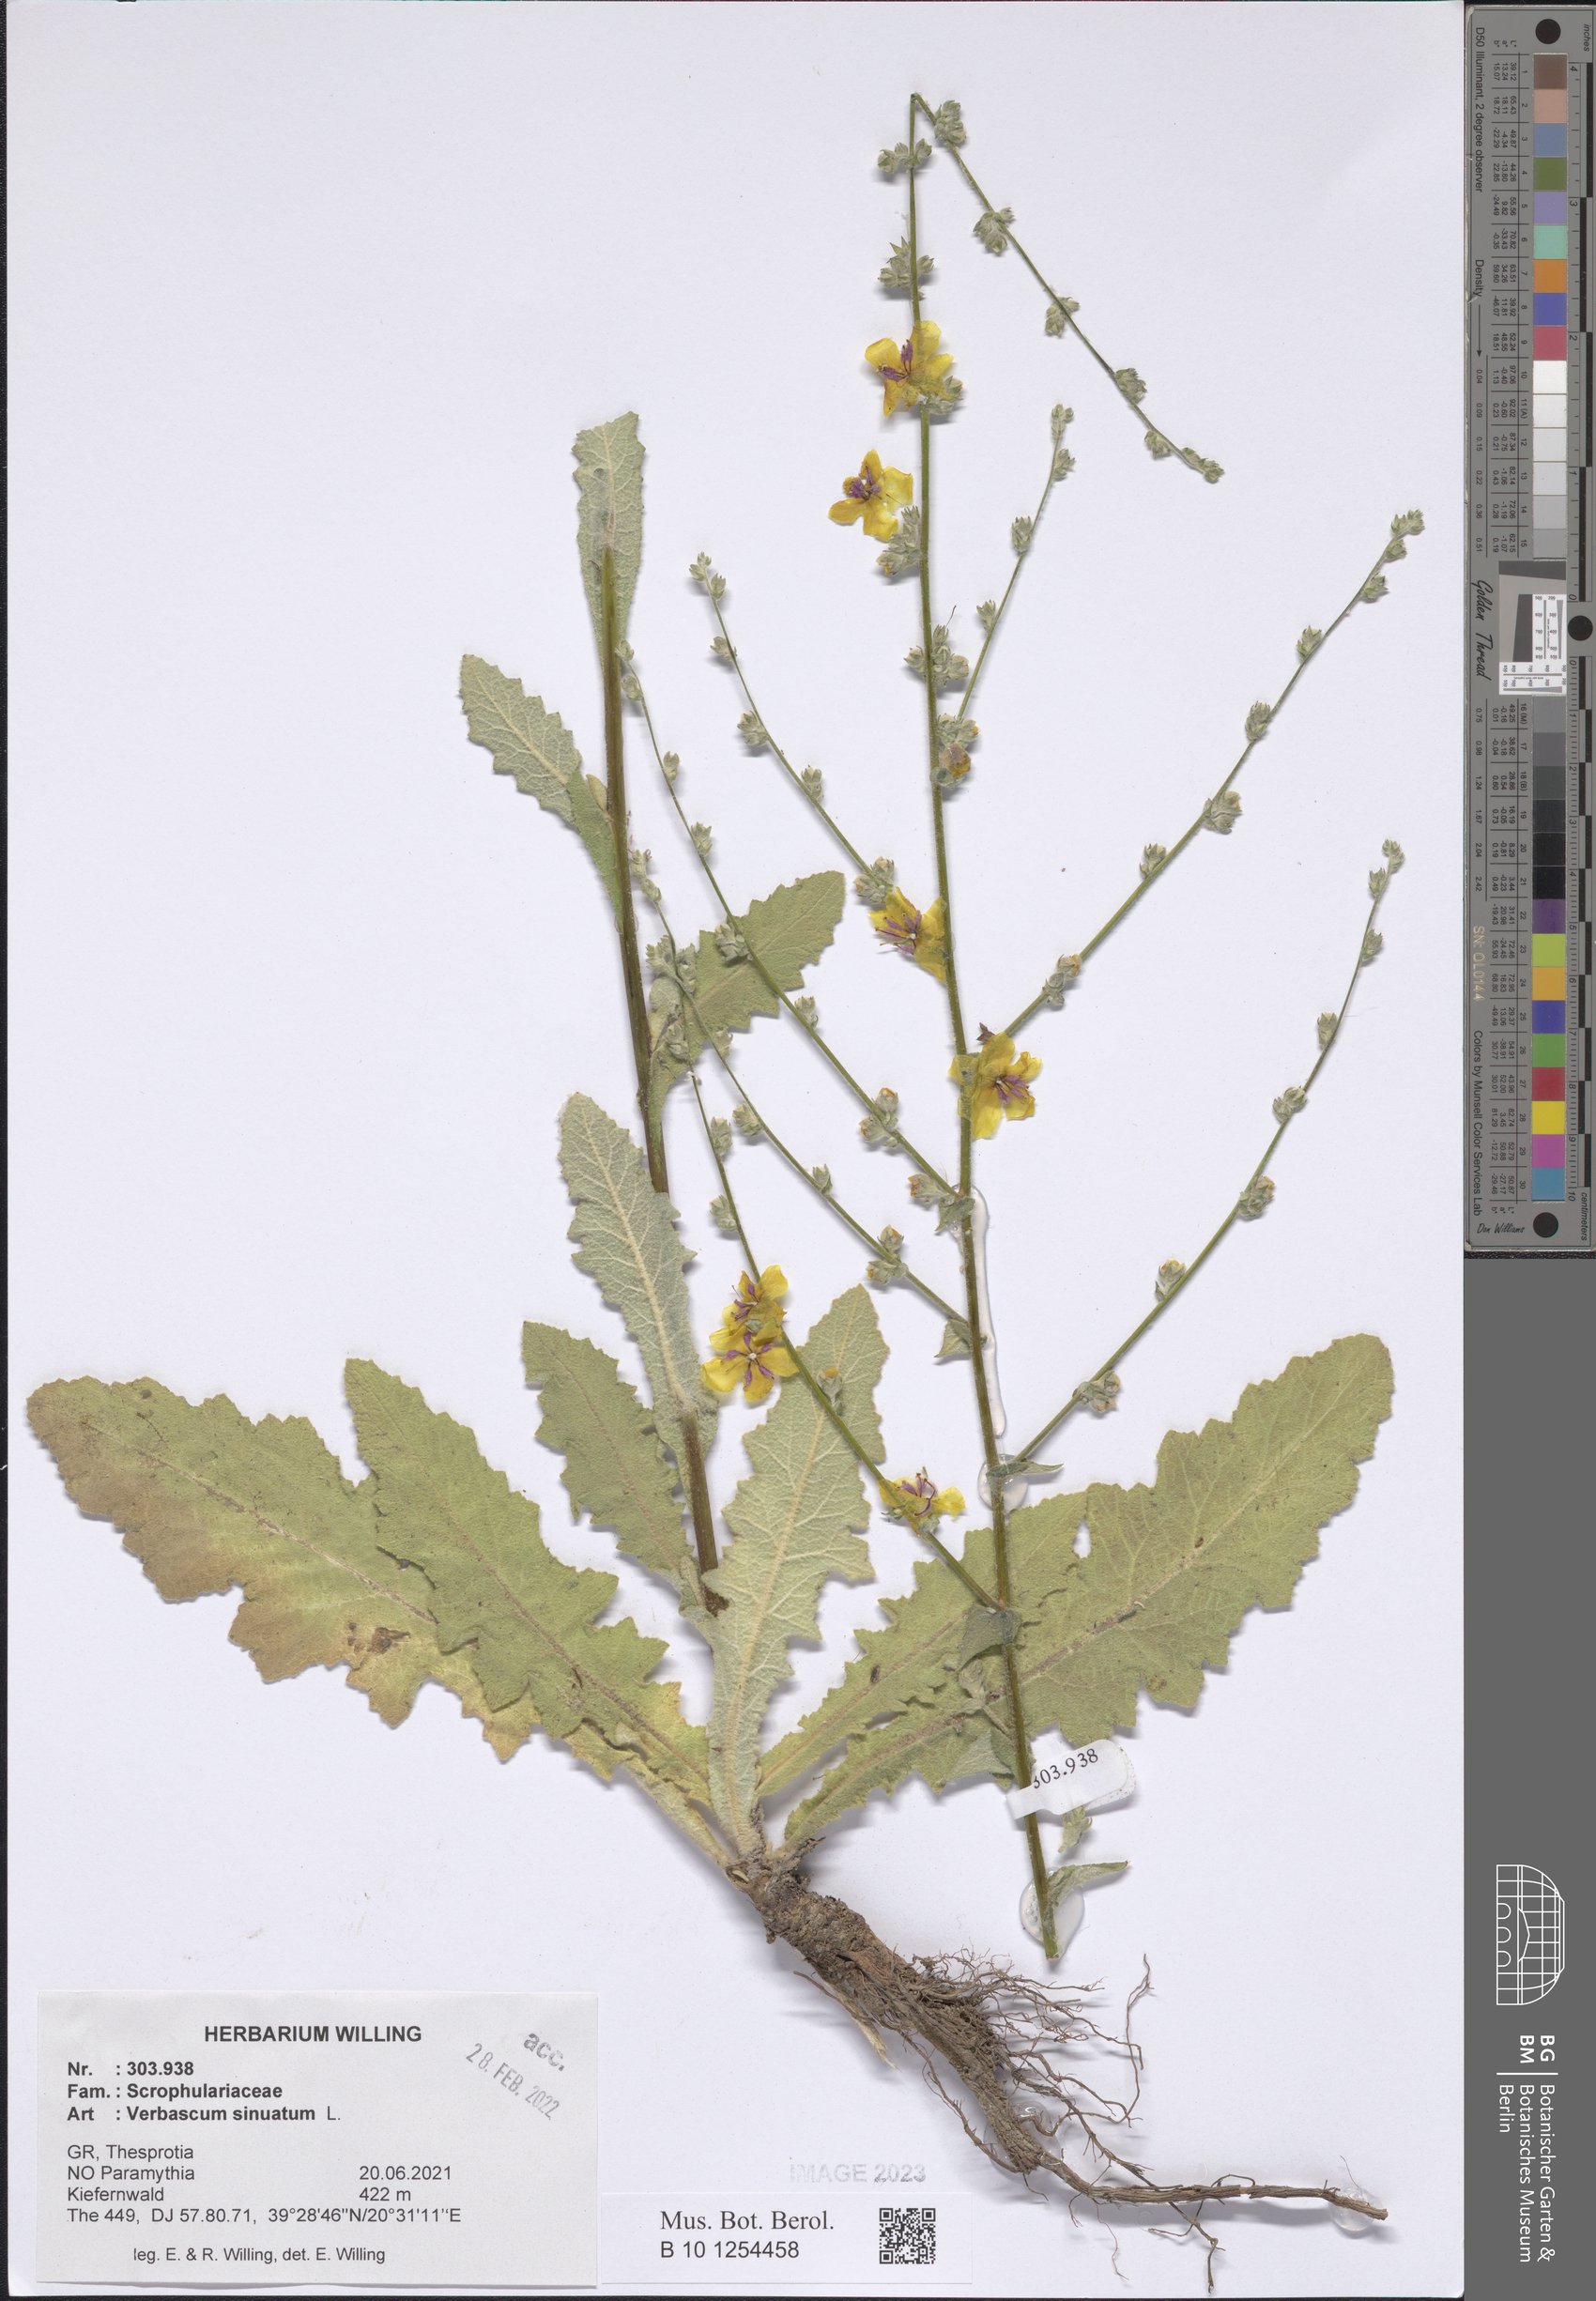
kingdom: Plantae
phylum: Tracheophyta
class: Magnoliopsida
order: Lamiales
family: Scrophulariaceae
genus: Verbascum
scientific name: Verbascum sinuatum
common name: Wavyleaf mullein
